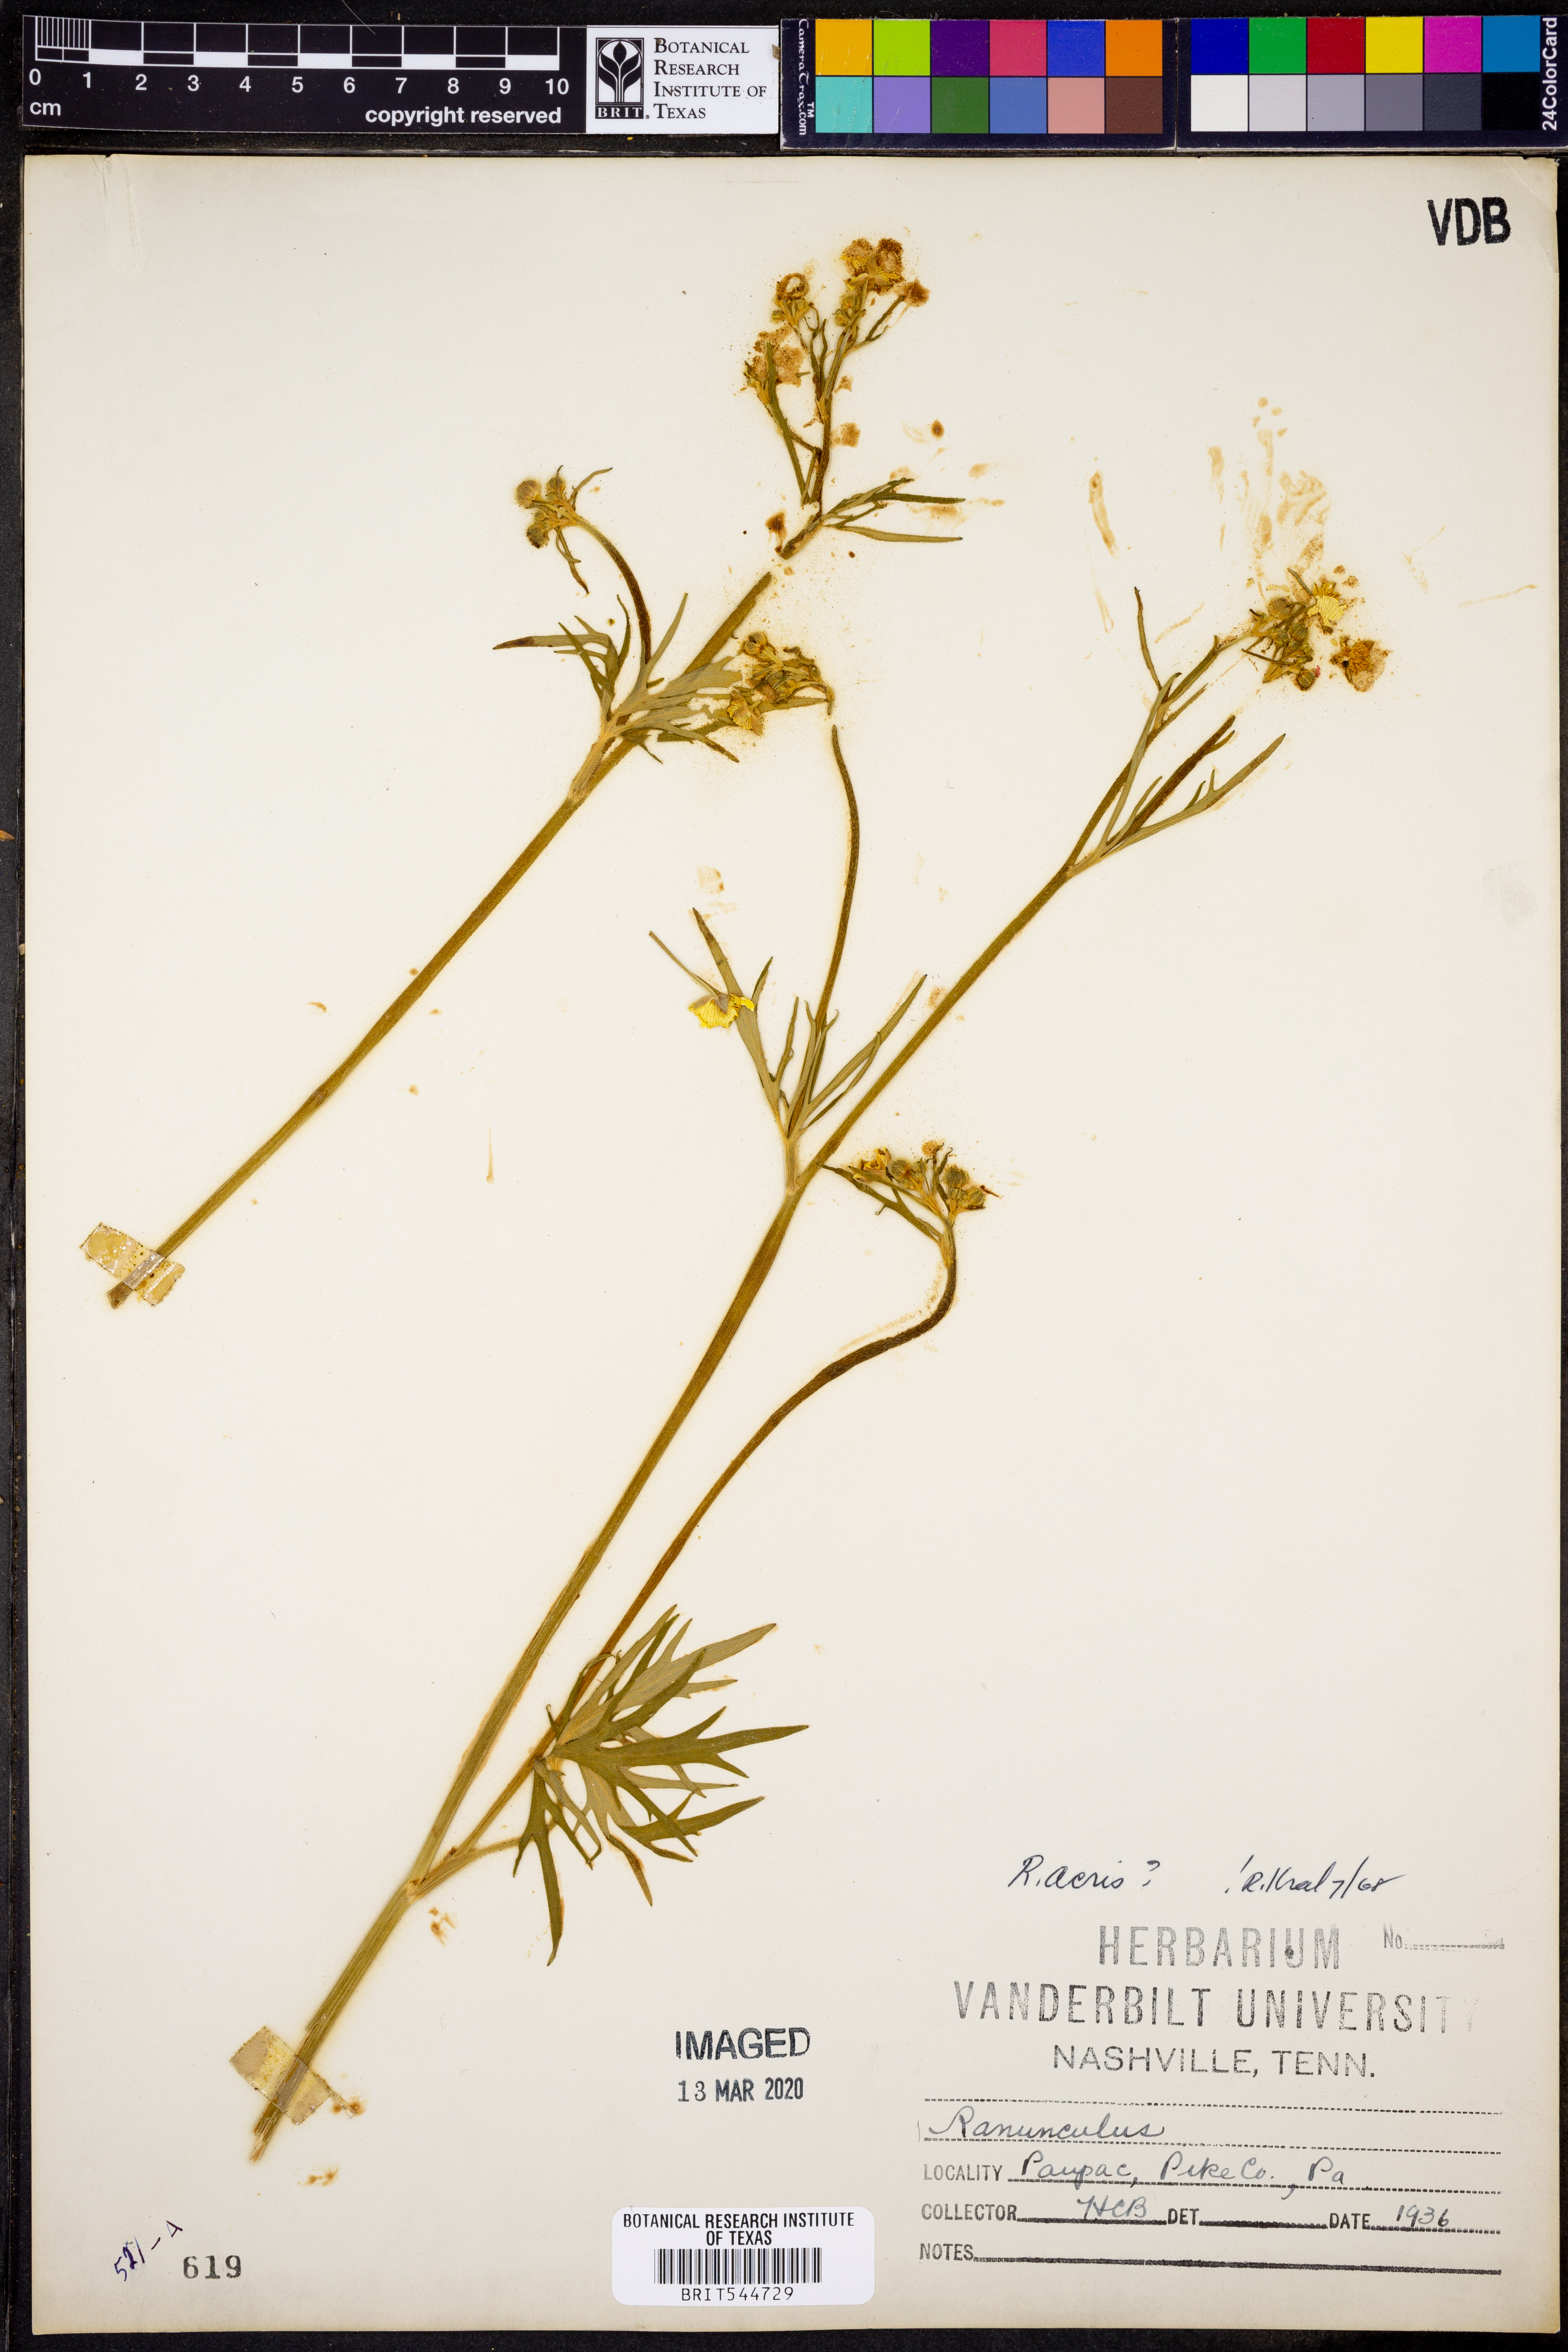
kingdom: Plantae
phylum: Tracheophyta
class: Magnoliopsida
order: Ranunculales
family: Ranunculaceae
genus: Ranunculus
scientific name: Ranunculus acris
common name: Meadow buttercup
